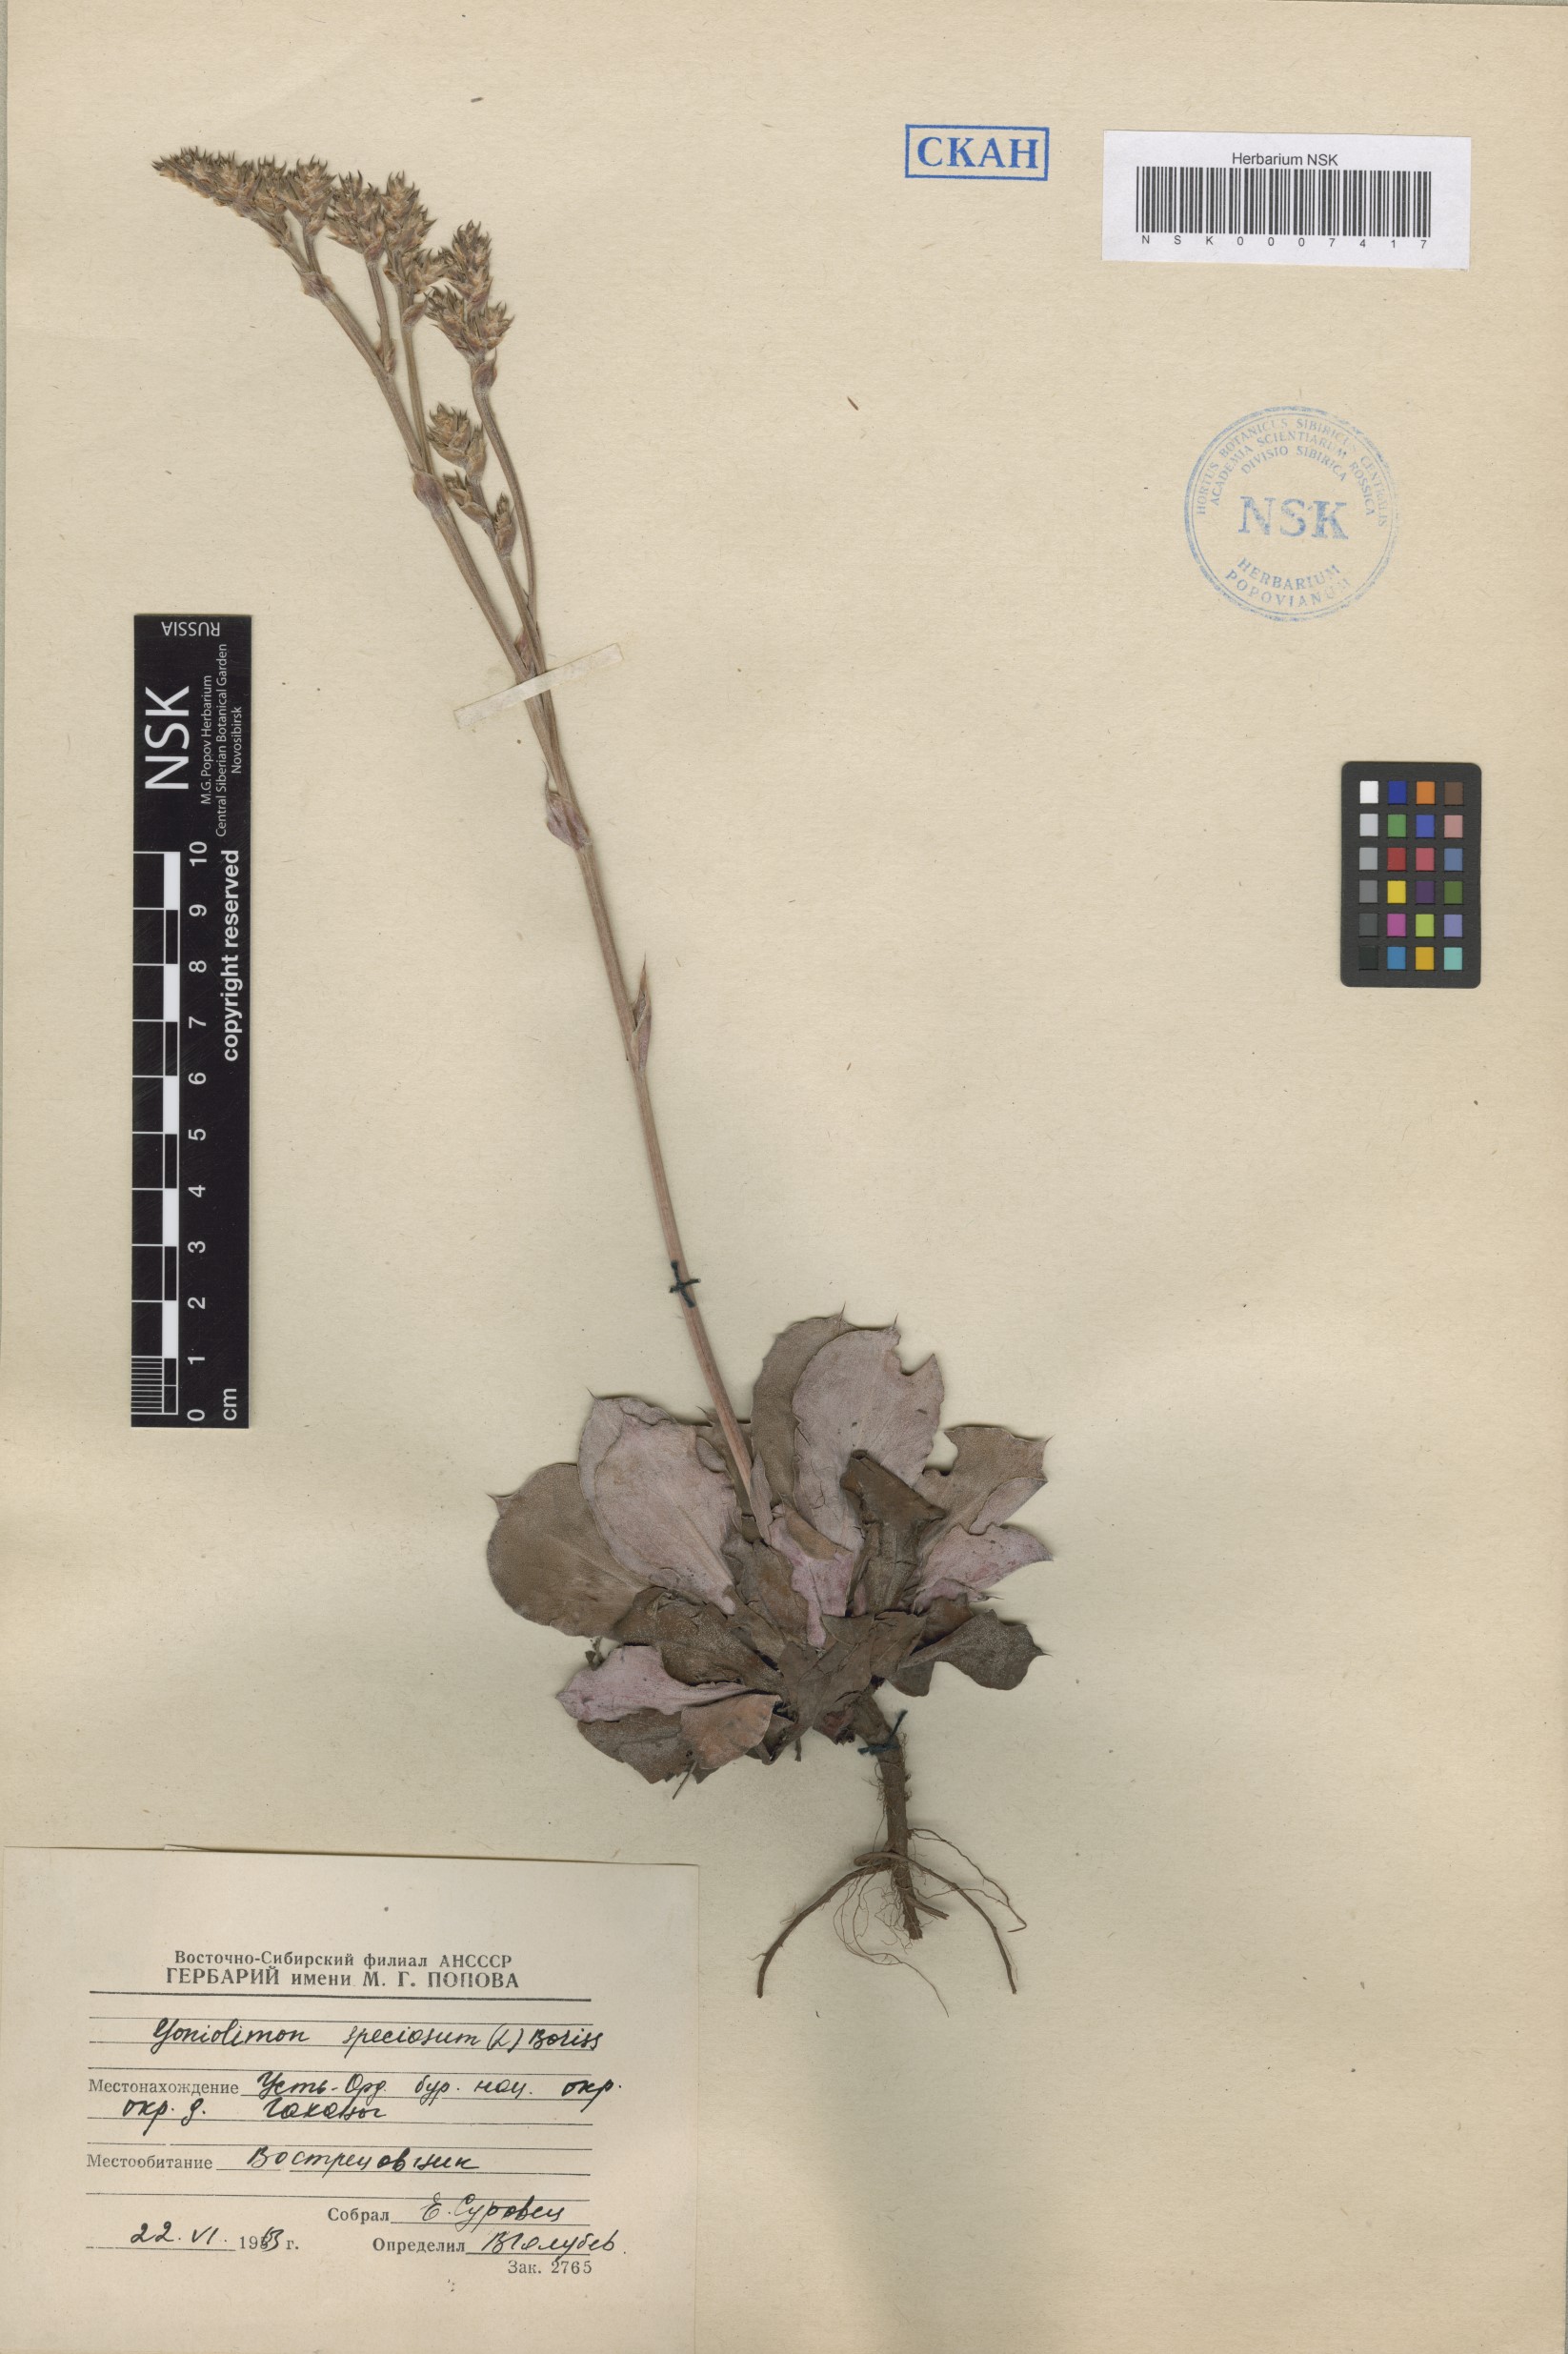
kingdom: Plantae
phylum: Tracheophyta
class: Magnoliopsida
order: Caryophyllales
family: Plumbaginaceae
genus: Goniolimon
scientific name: Goniolimon speciosum
